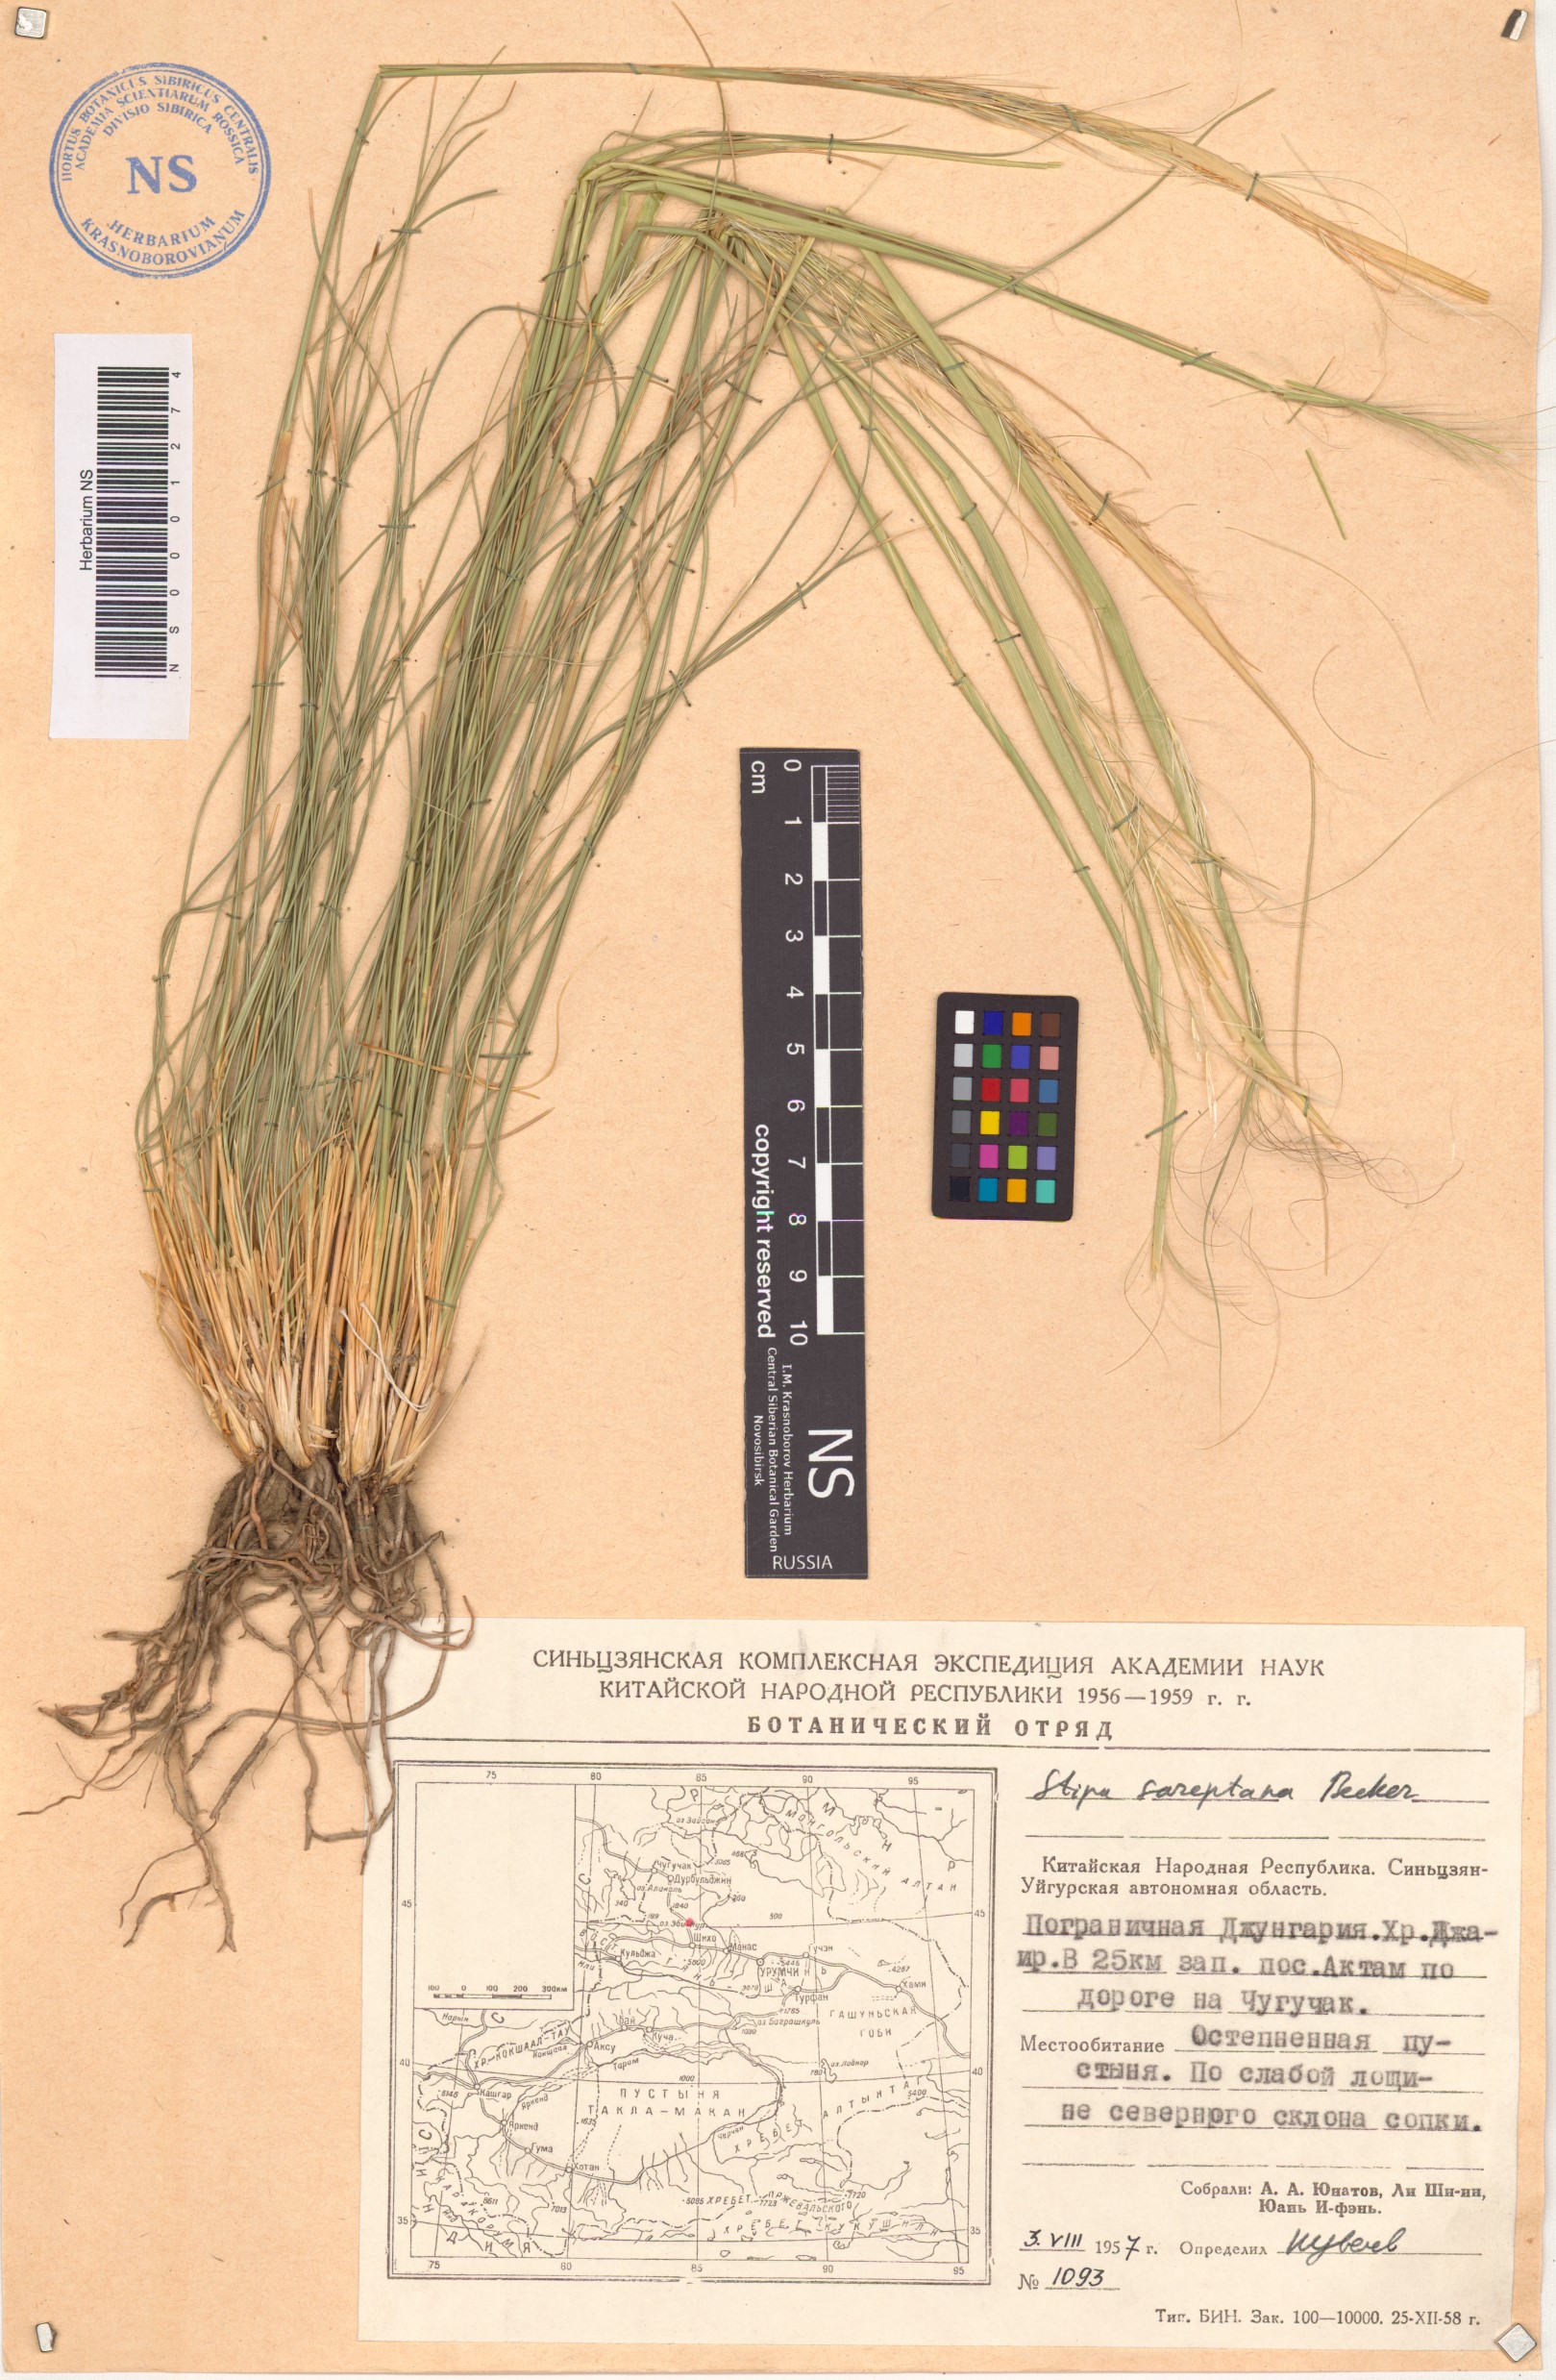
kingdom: Plantae
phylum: Tracheophyta
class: Liliopsida
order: Poales
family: Poaceae
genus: Stipa
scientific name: Stipa sareptana
